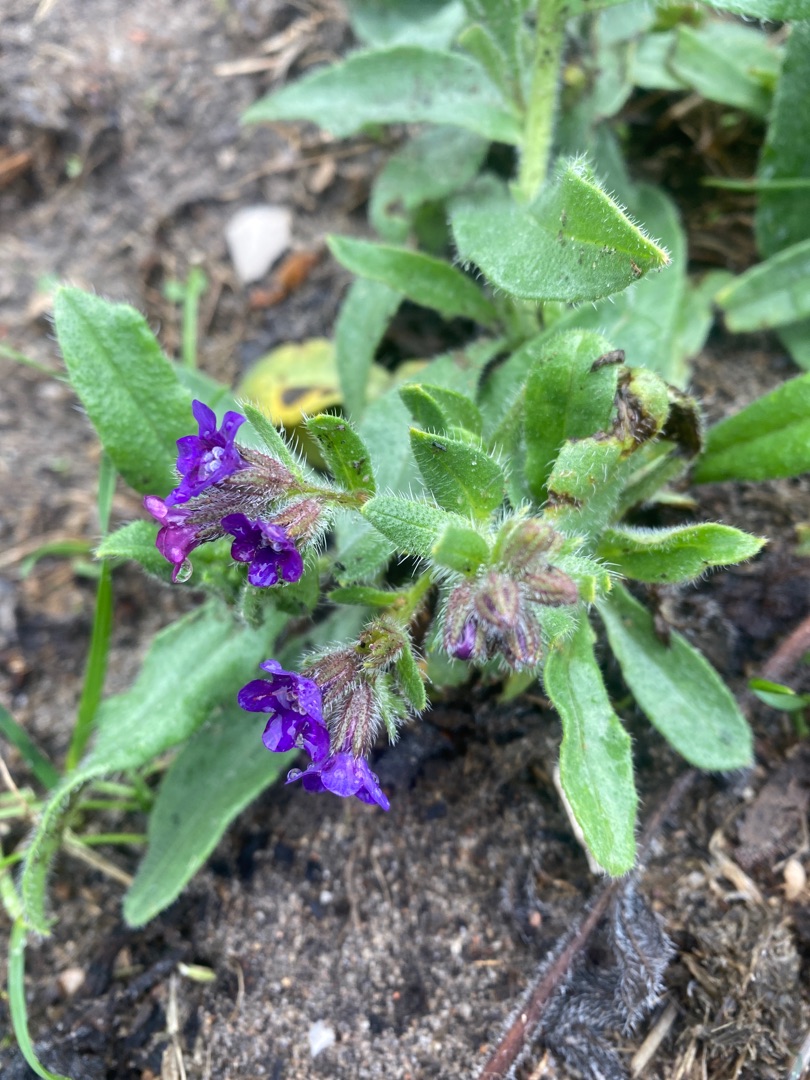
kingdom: Plantae
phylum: Tracheophyta
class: Magnoliopsida
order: Boraginales
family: Boraginaceae
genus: Anchusa
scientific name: Anchusa officinalis
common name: Læge-oksetunge
